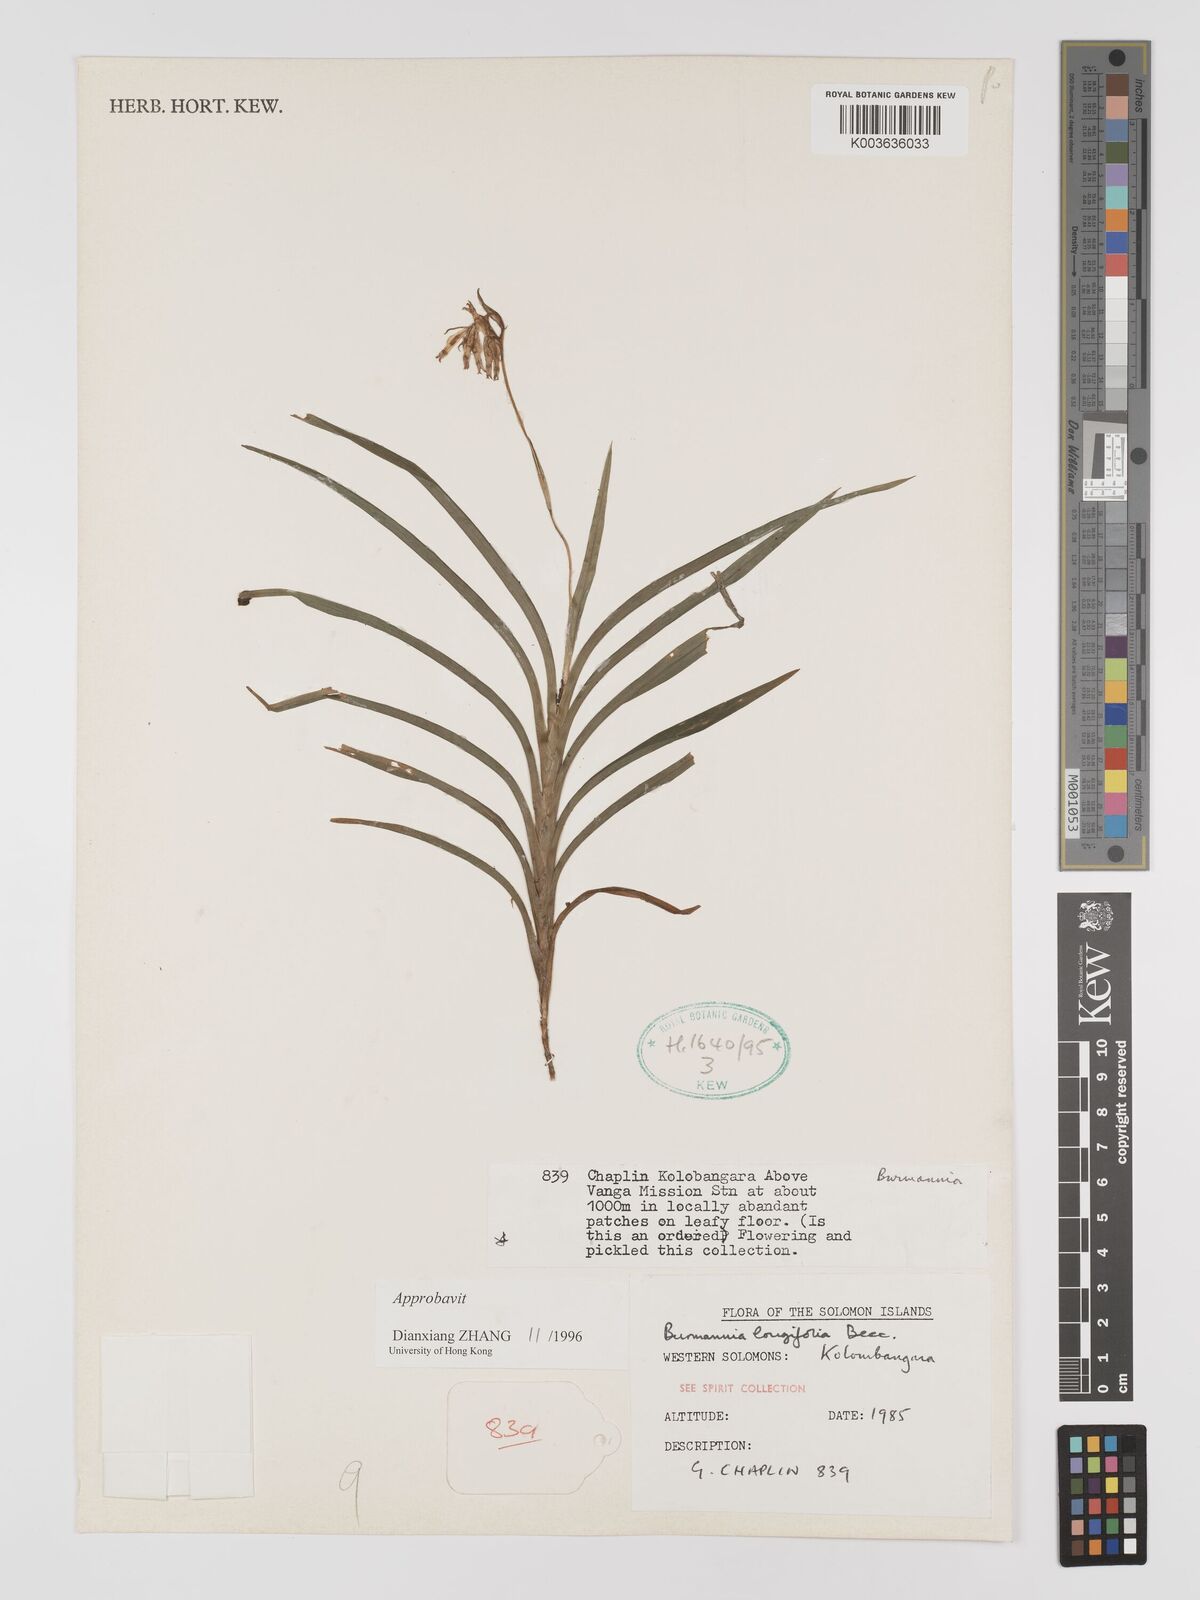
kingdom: Plantae
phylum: Tracheophyta
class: Liliopsida
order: Dioscoreales
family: Burmanniaceae
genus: Burmannia
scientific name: Burmannia longifolia
